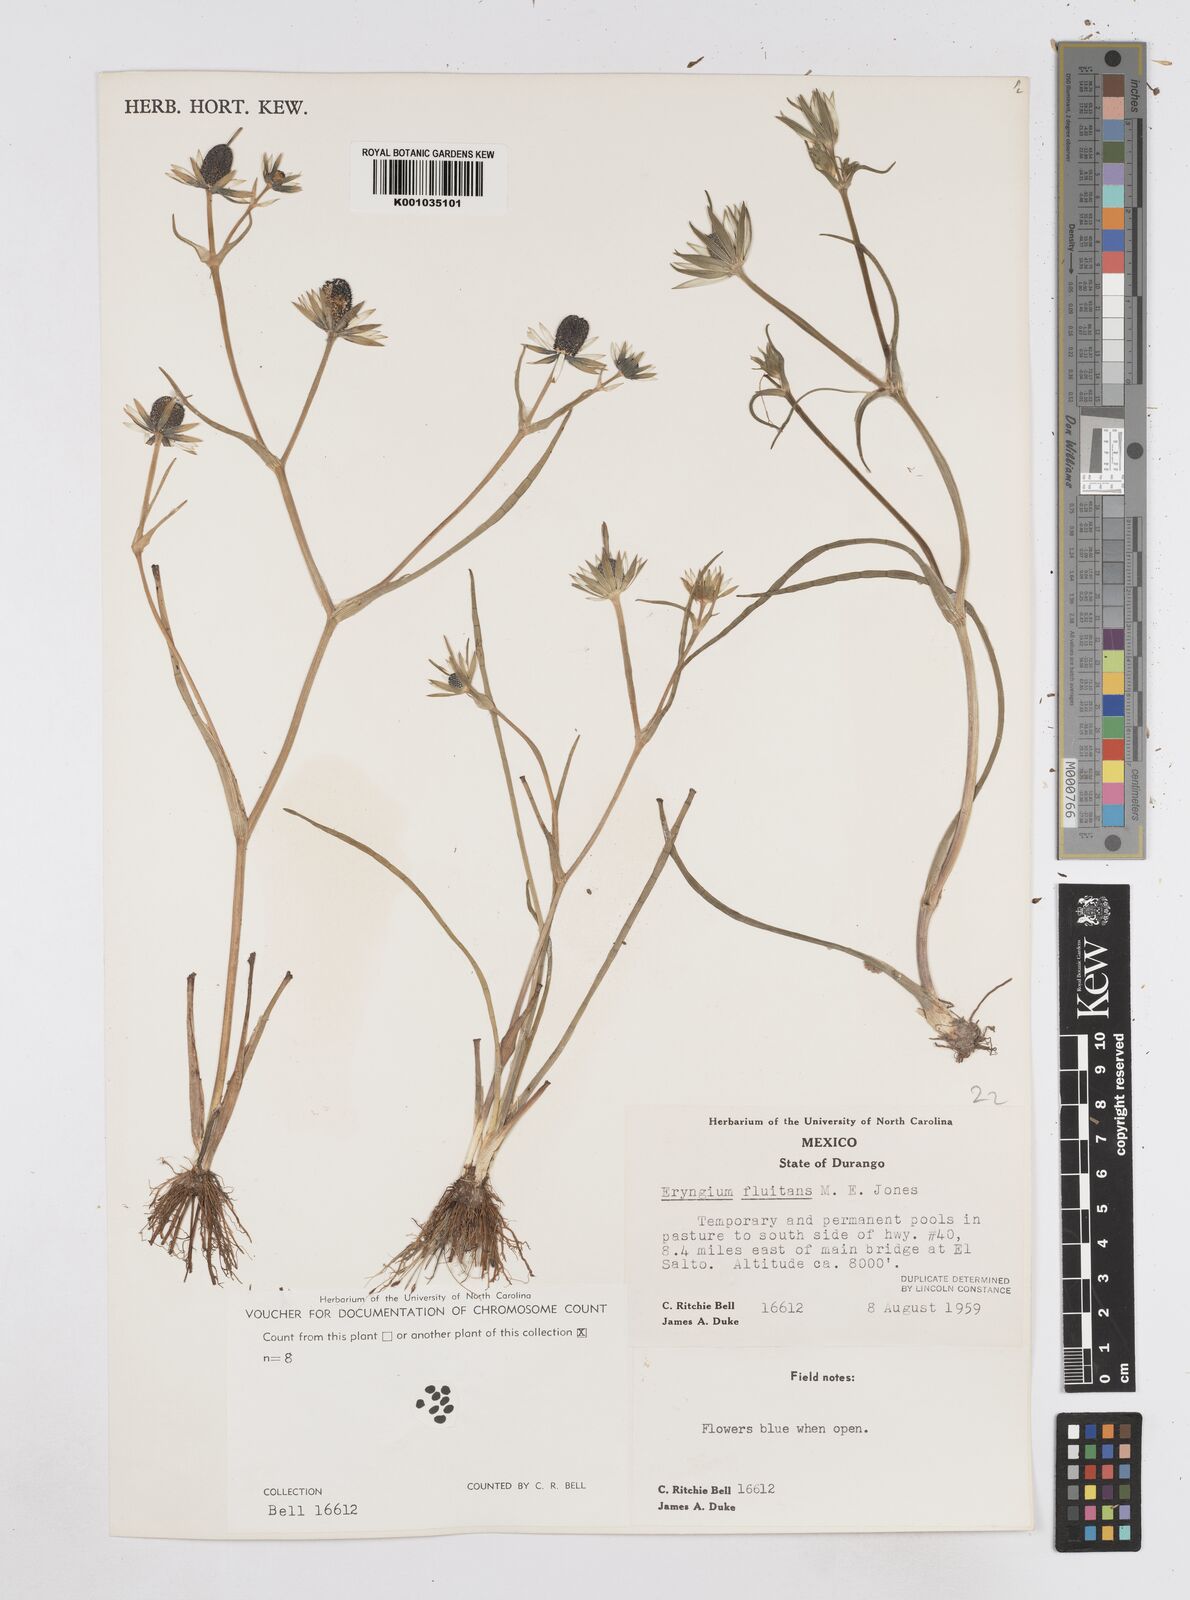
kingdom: Plantae
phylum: Tracheophyta
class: Magnoliopsida
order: Apiales
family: Apiaceae
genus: Eryngium
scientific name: Eryngium fluitans
